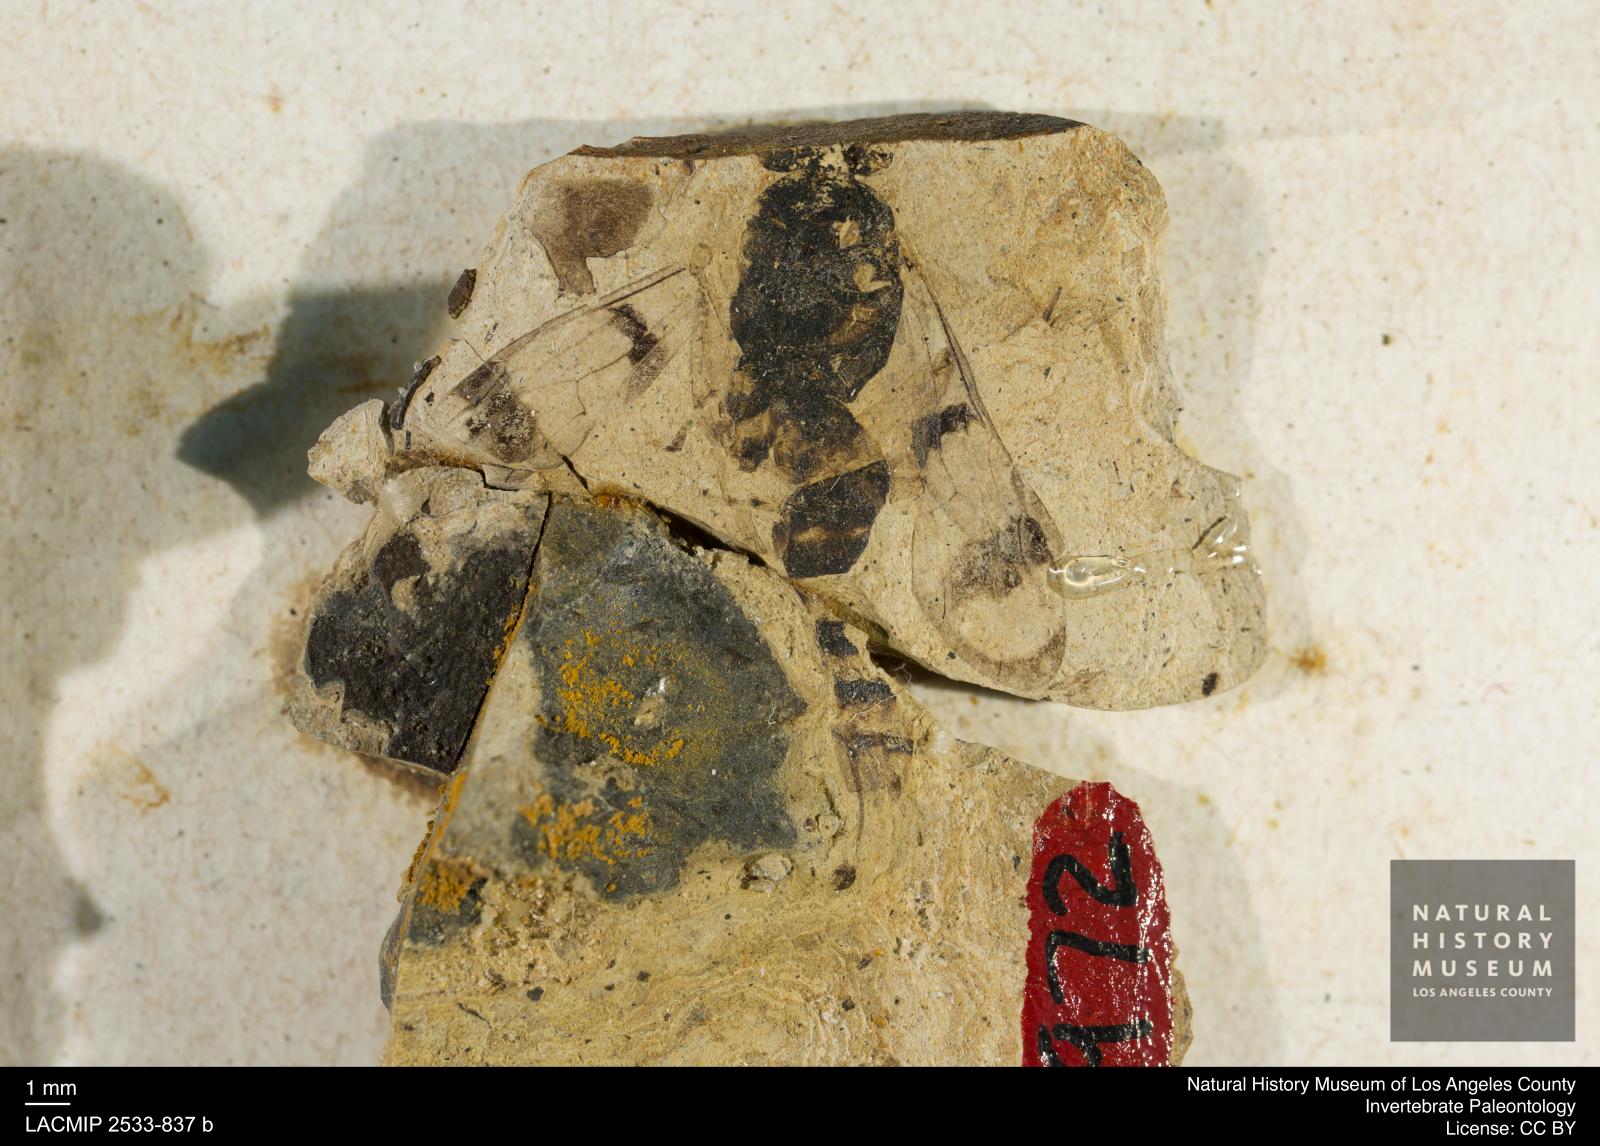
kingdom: Animalia
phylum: Arthropoda
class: Insecta
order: Hymenoptera
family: Pompilidae
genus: Priocnemis
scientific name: Priocnemis aertsi
